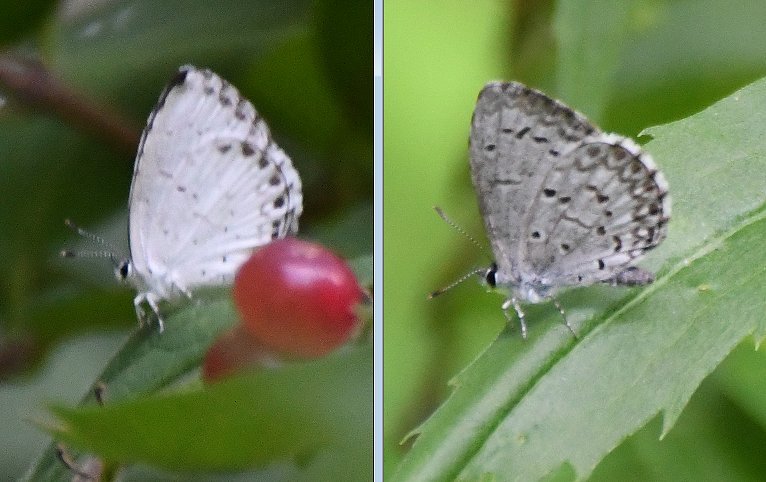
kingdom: Animalia
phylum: Arthropoda
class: Insecta
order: Lepidoptera
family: Lycaenidae
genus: Cyaniris
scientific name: Cyaniris neglecta
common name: Summer Azure
